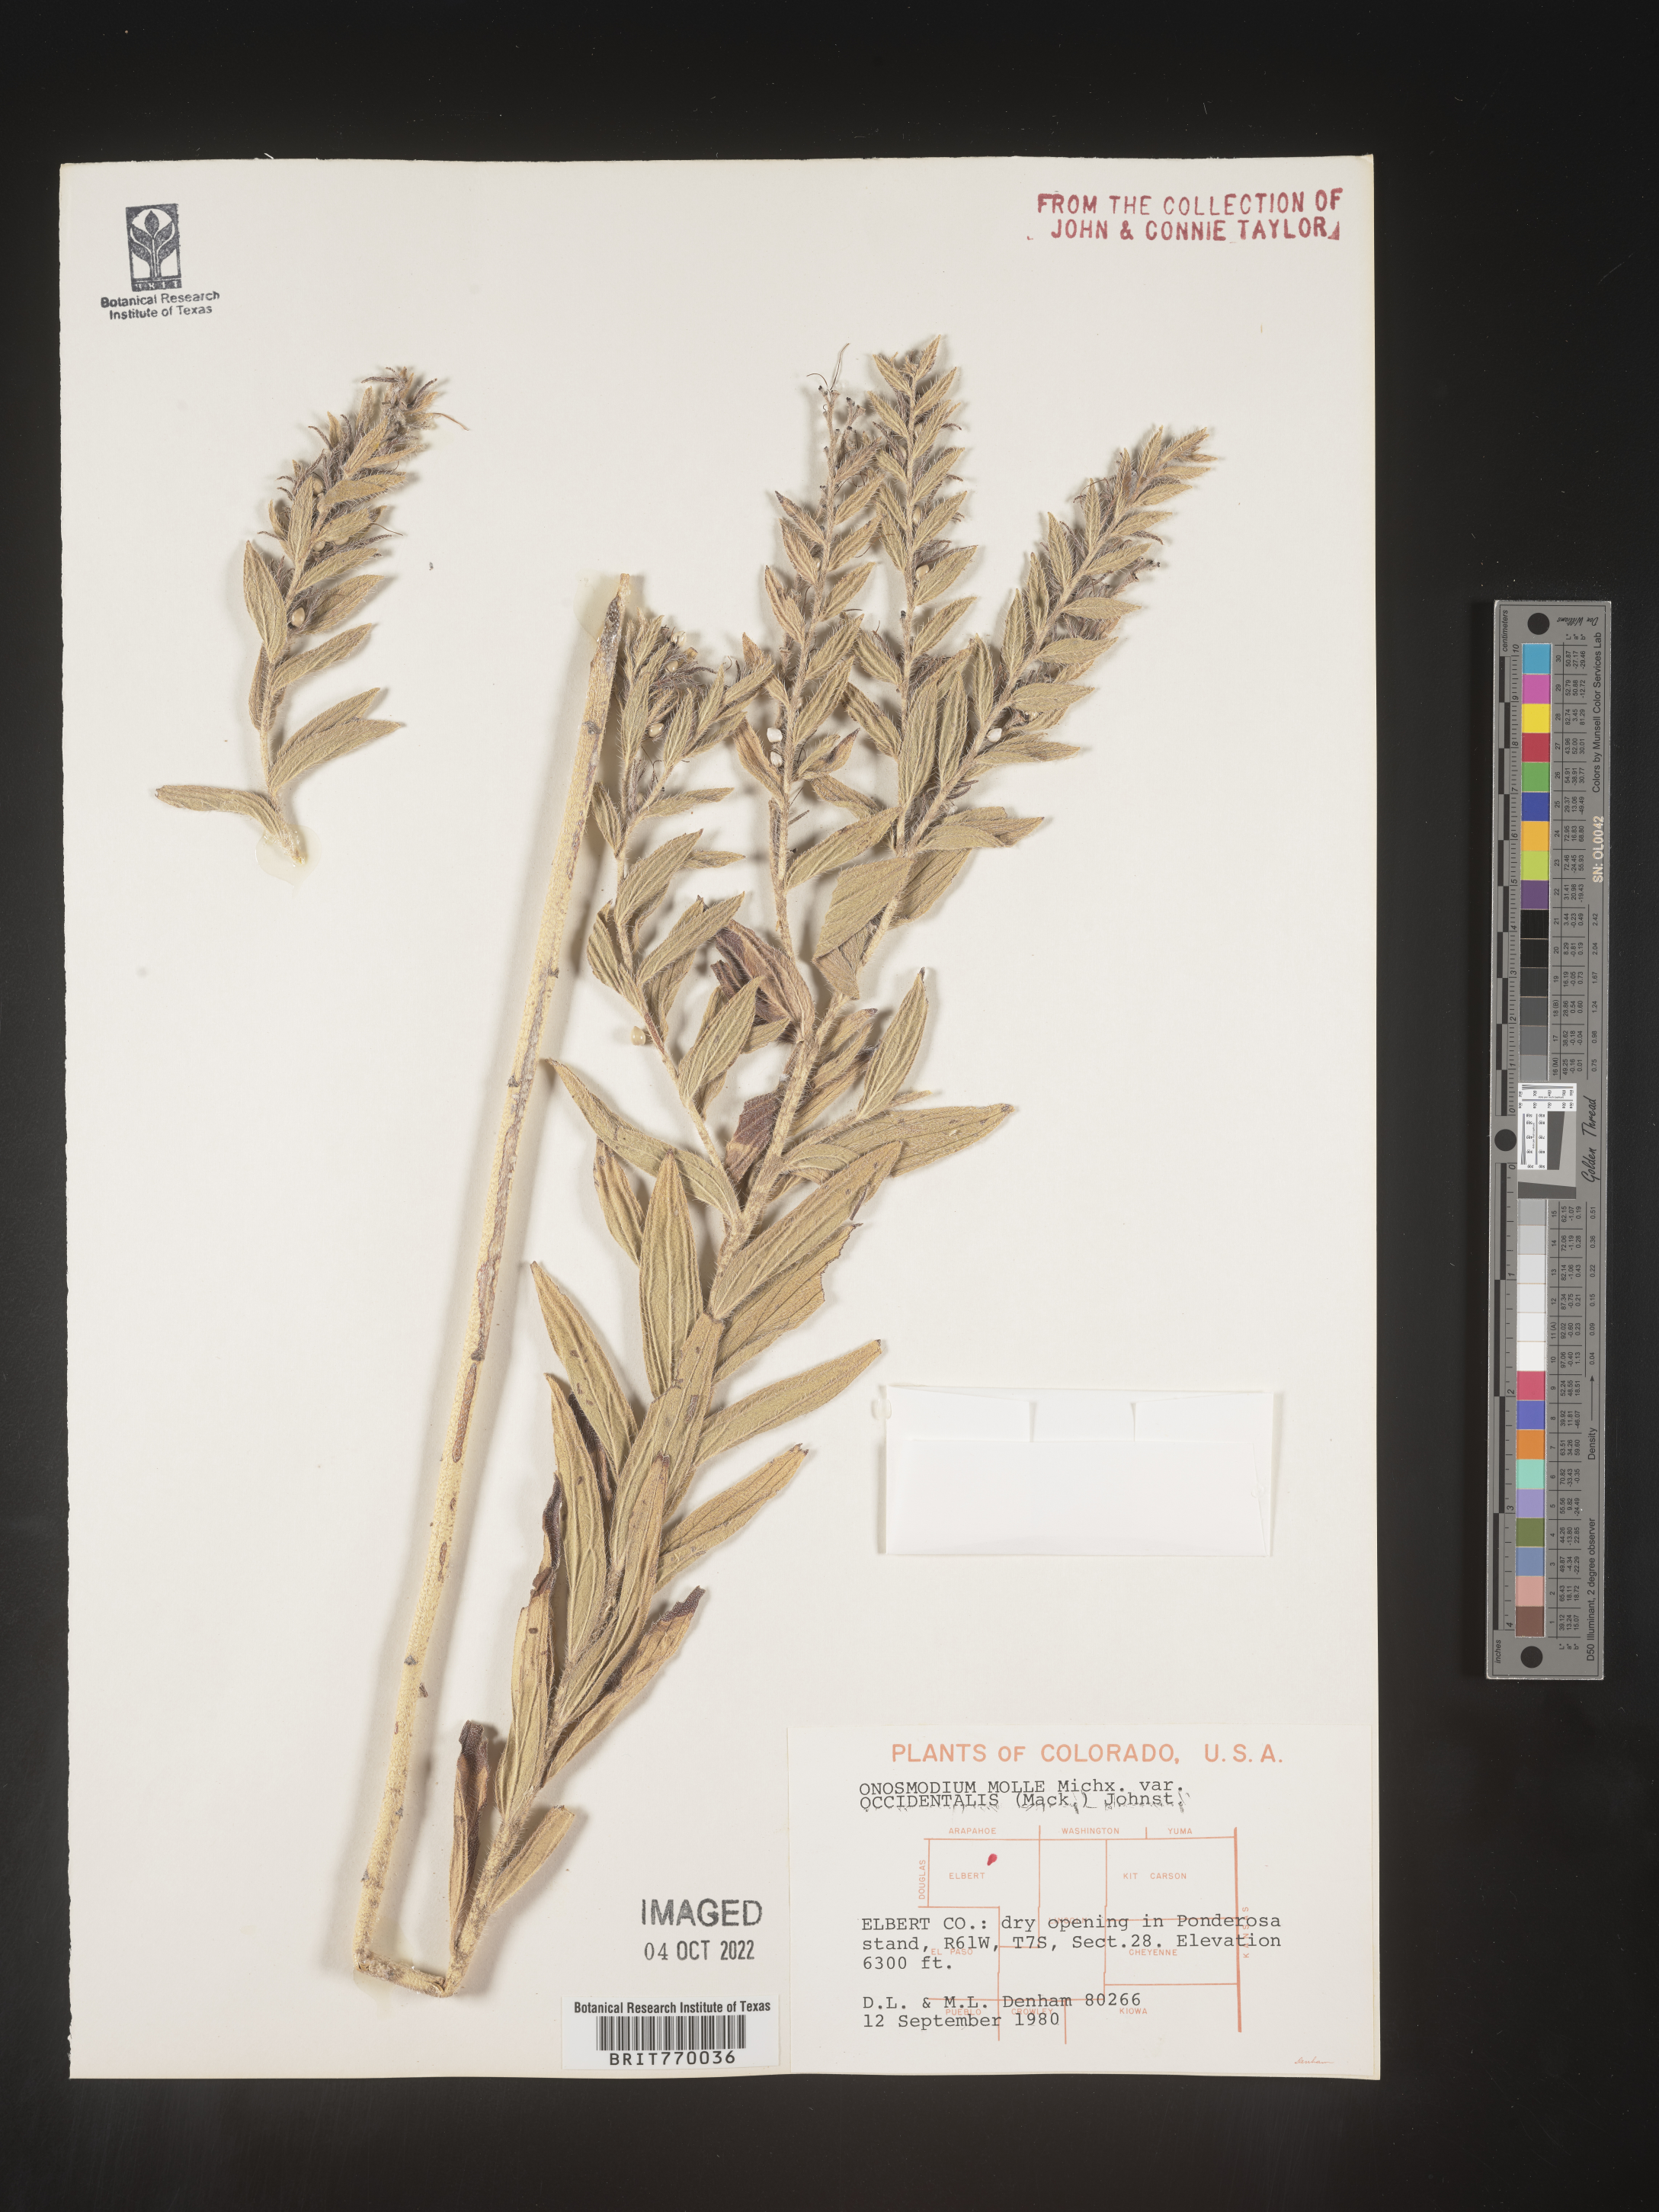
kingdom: Plantae
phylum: Tracheophyta
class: Magnoliopsida
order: Boraginales
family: Boraginaceae
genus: Lithospermum
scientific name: Lithospermum occidentale
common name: Western false gromwell
